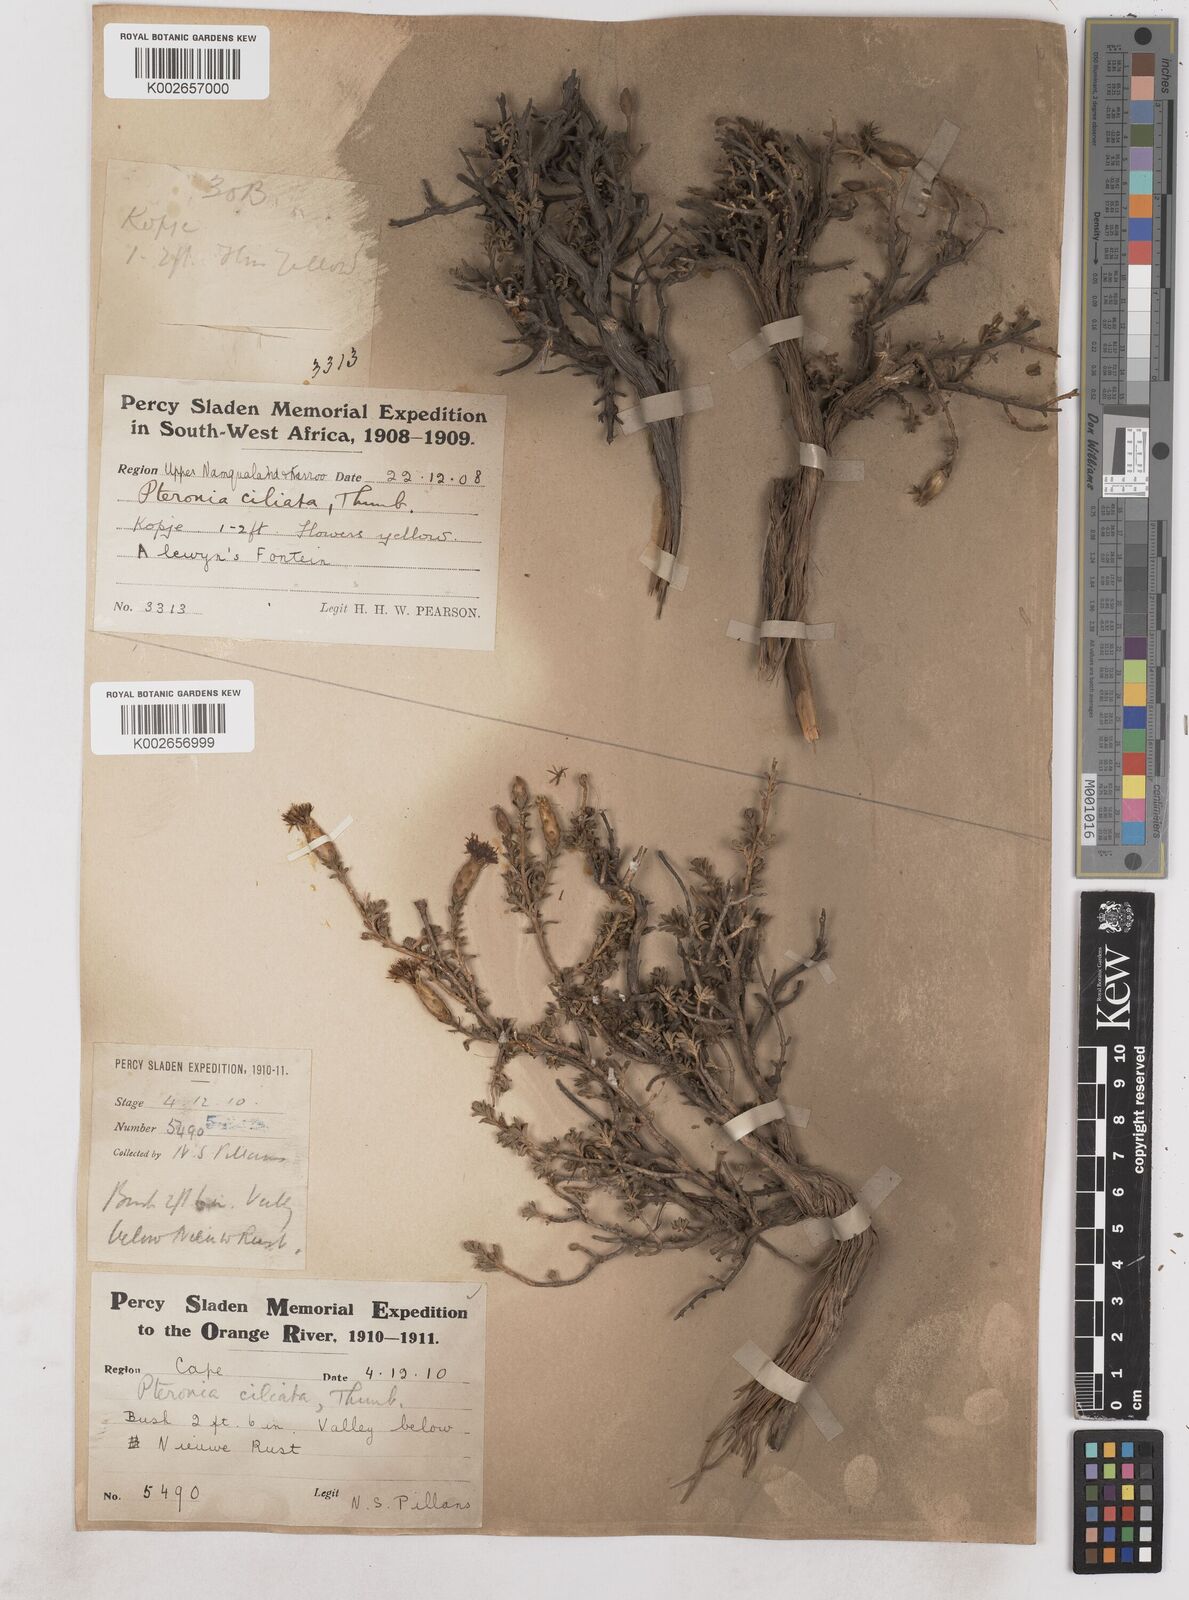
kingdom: Plantae
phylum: Tracheophyta
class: Magnoliopsida
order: Asterales
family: Asteraceae
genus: Pteronia
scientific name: Pteronia ciliata
